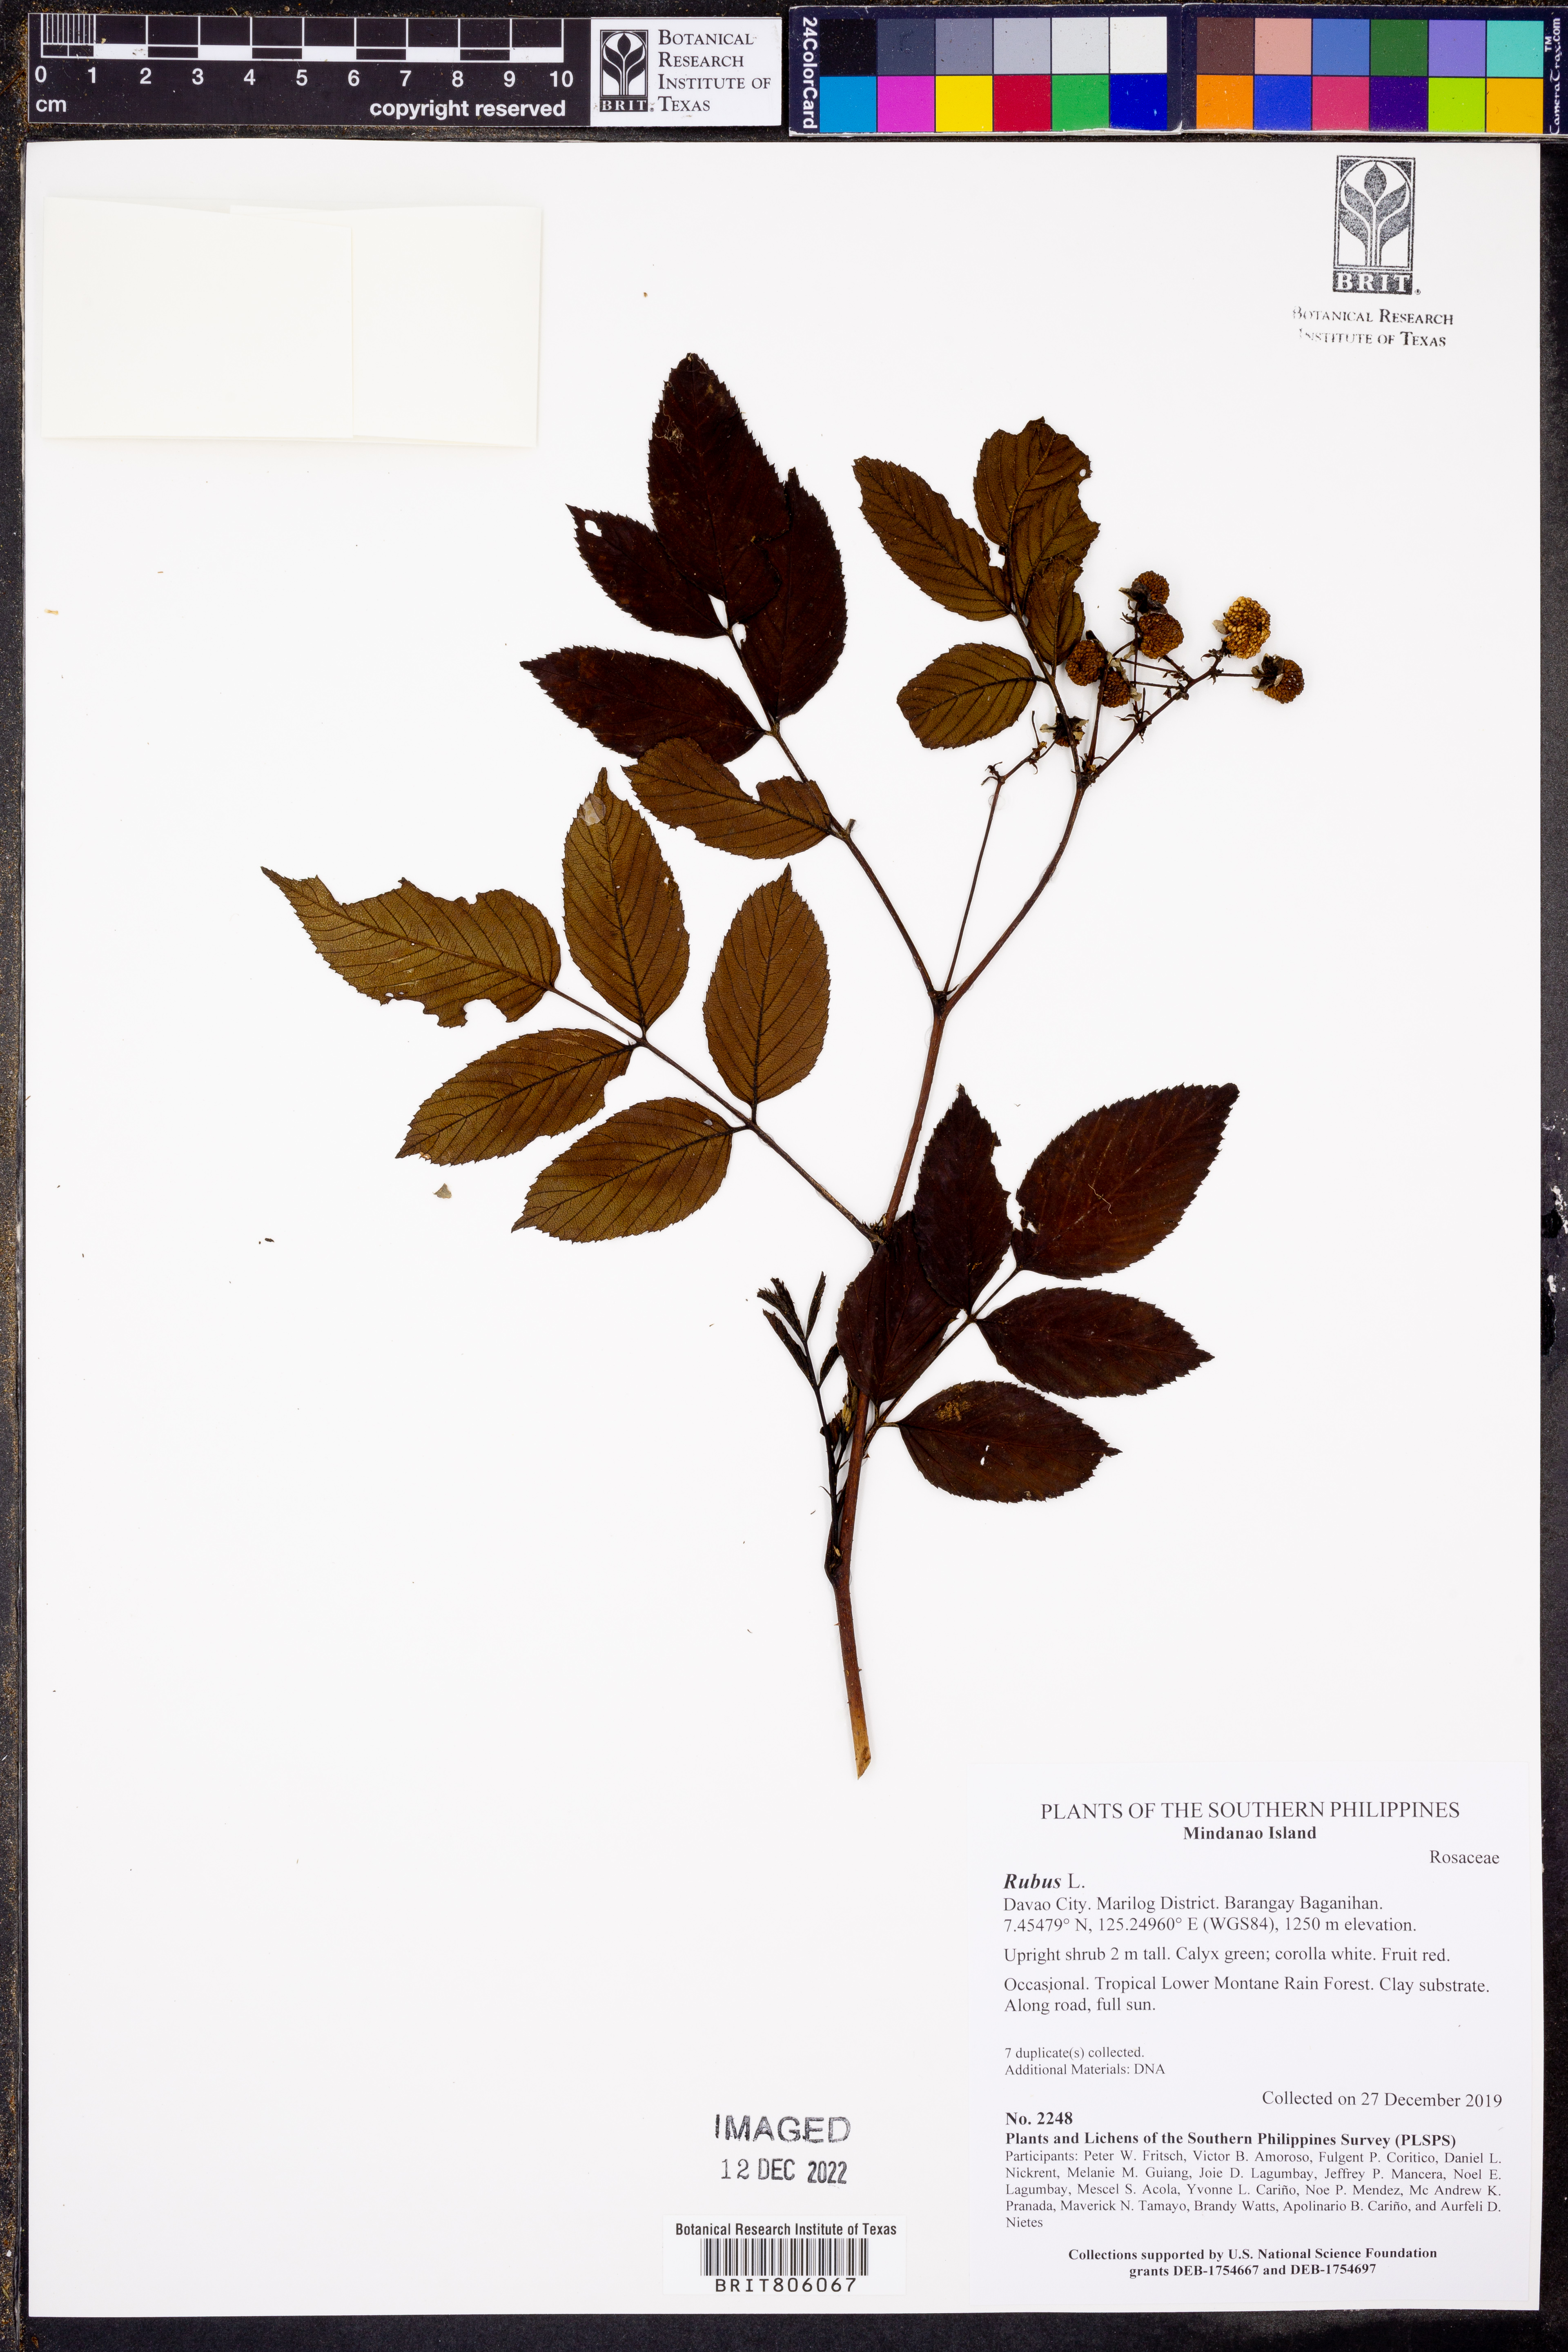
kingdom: Plantae
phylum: Tracheophyta
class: Magnoliopsida
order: Rosales
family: Rosaceae
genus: Rubus
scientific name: Rubus
